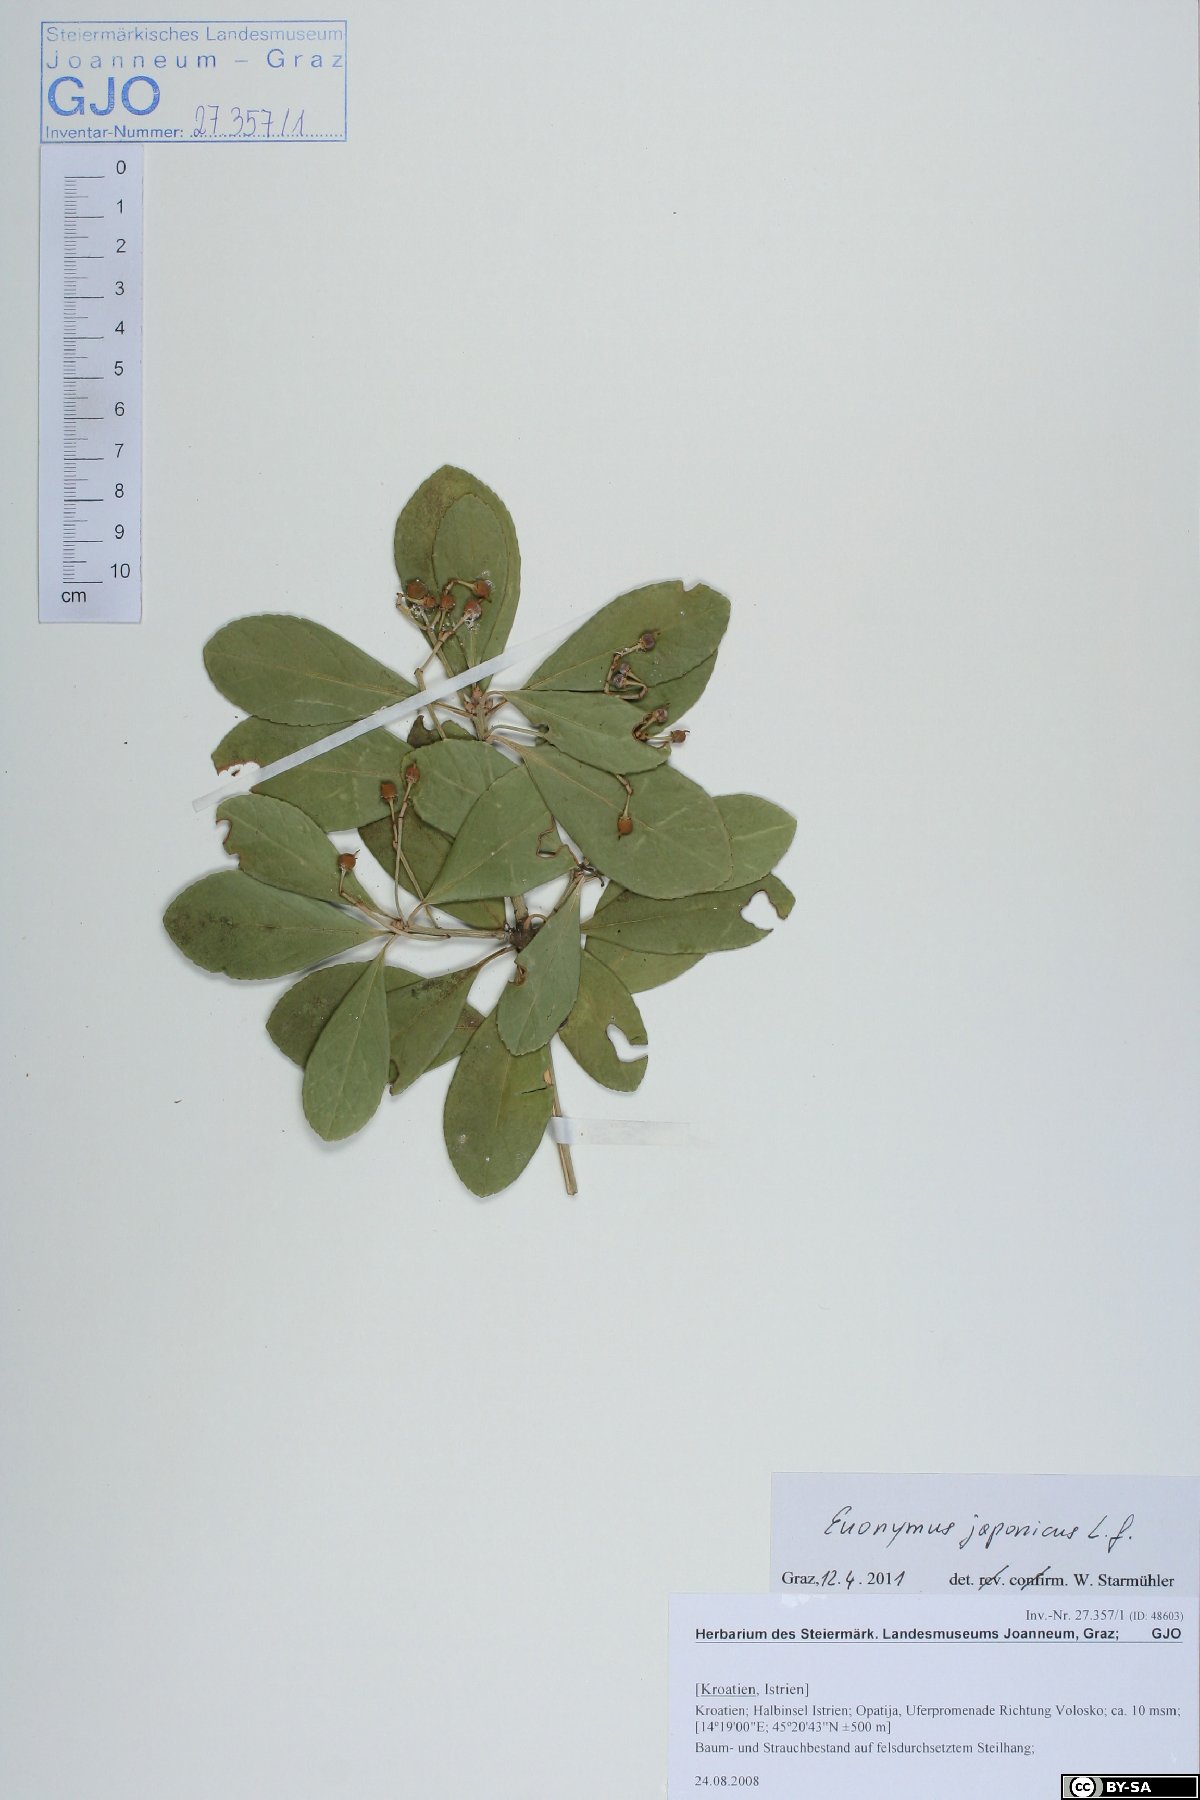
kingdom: Plantae
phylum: Tracheophyta
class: Magnoliopsida
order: Celastrales
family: Celastraceae
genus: Euonymus
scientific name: Euonymus fortunei
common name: Climbing euonymus
